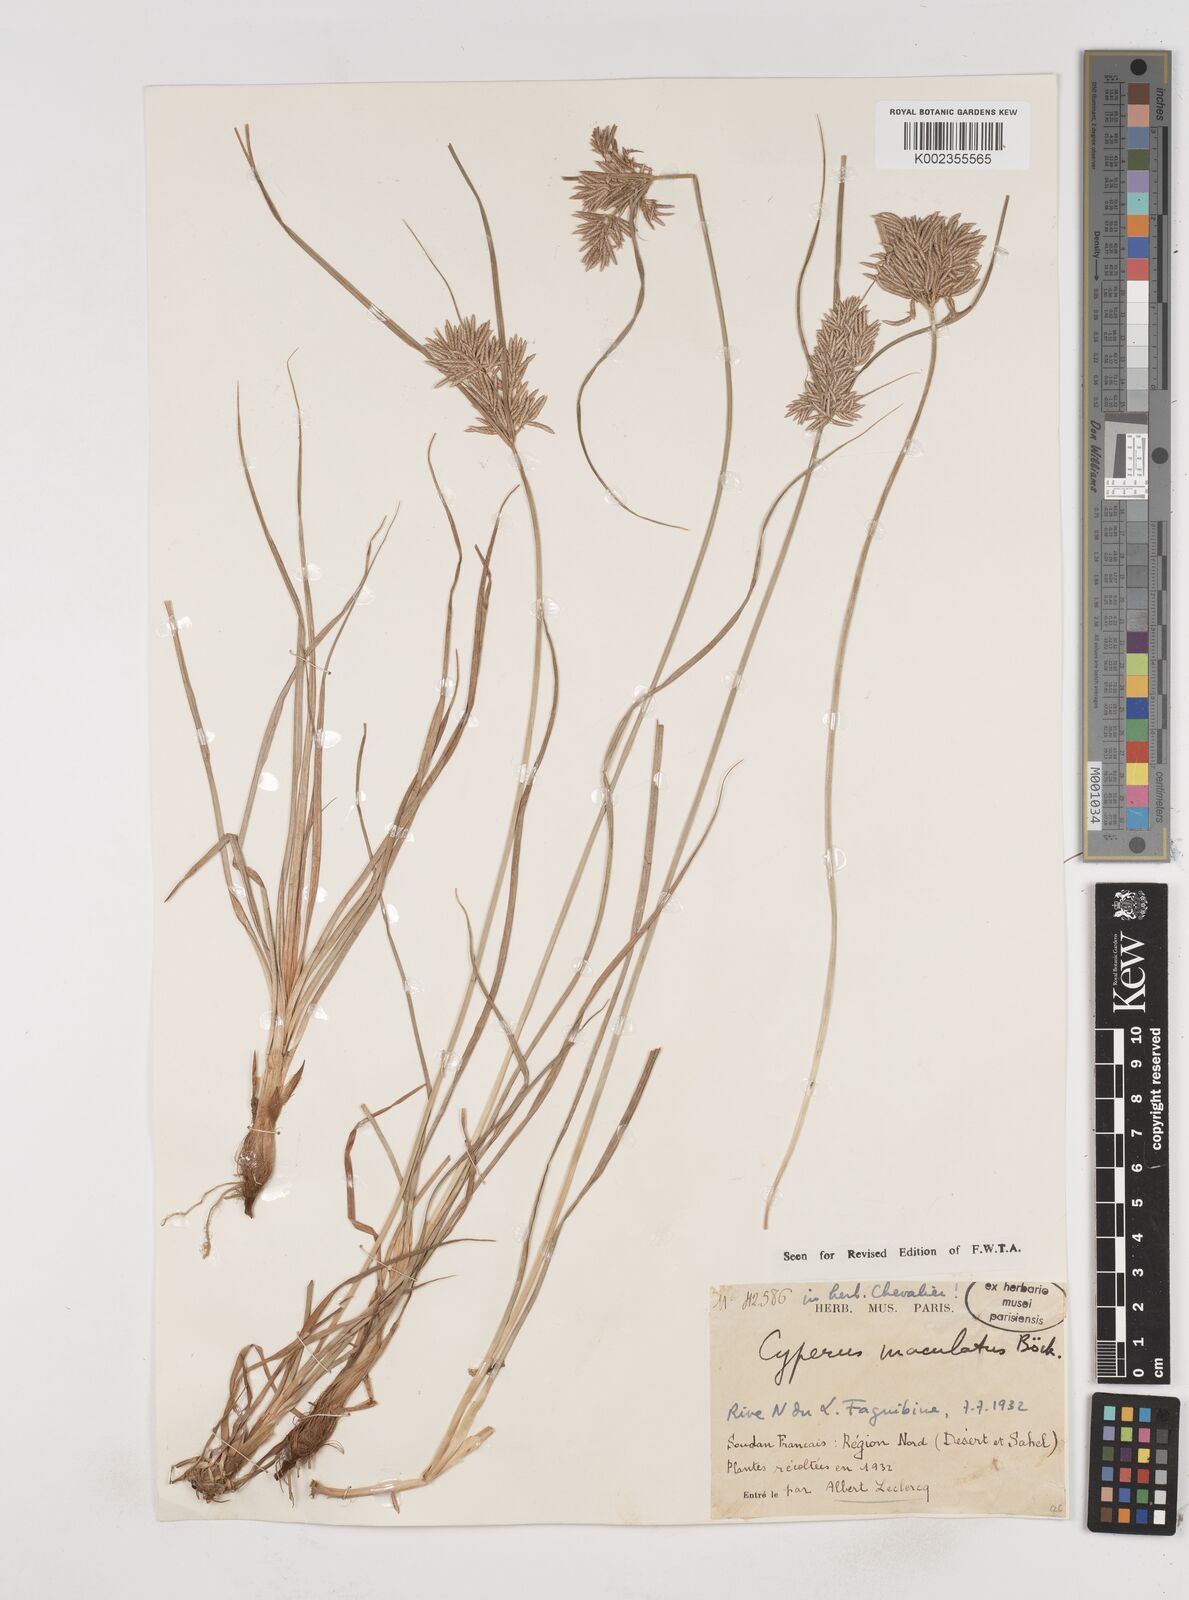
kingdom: Plantae
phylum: Tracheophyta
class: Liliopsida
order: Poales
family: Cyperaceae
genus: Cyperus
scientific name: Cyperus maculatus
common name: Maculated sedge
